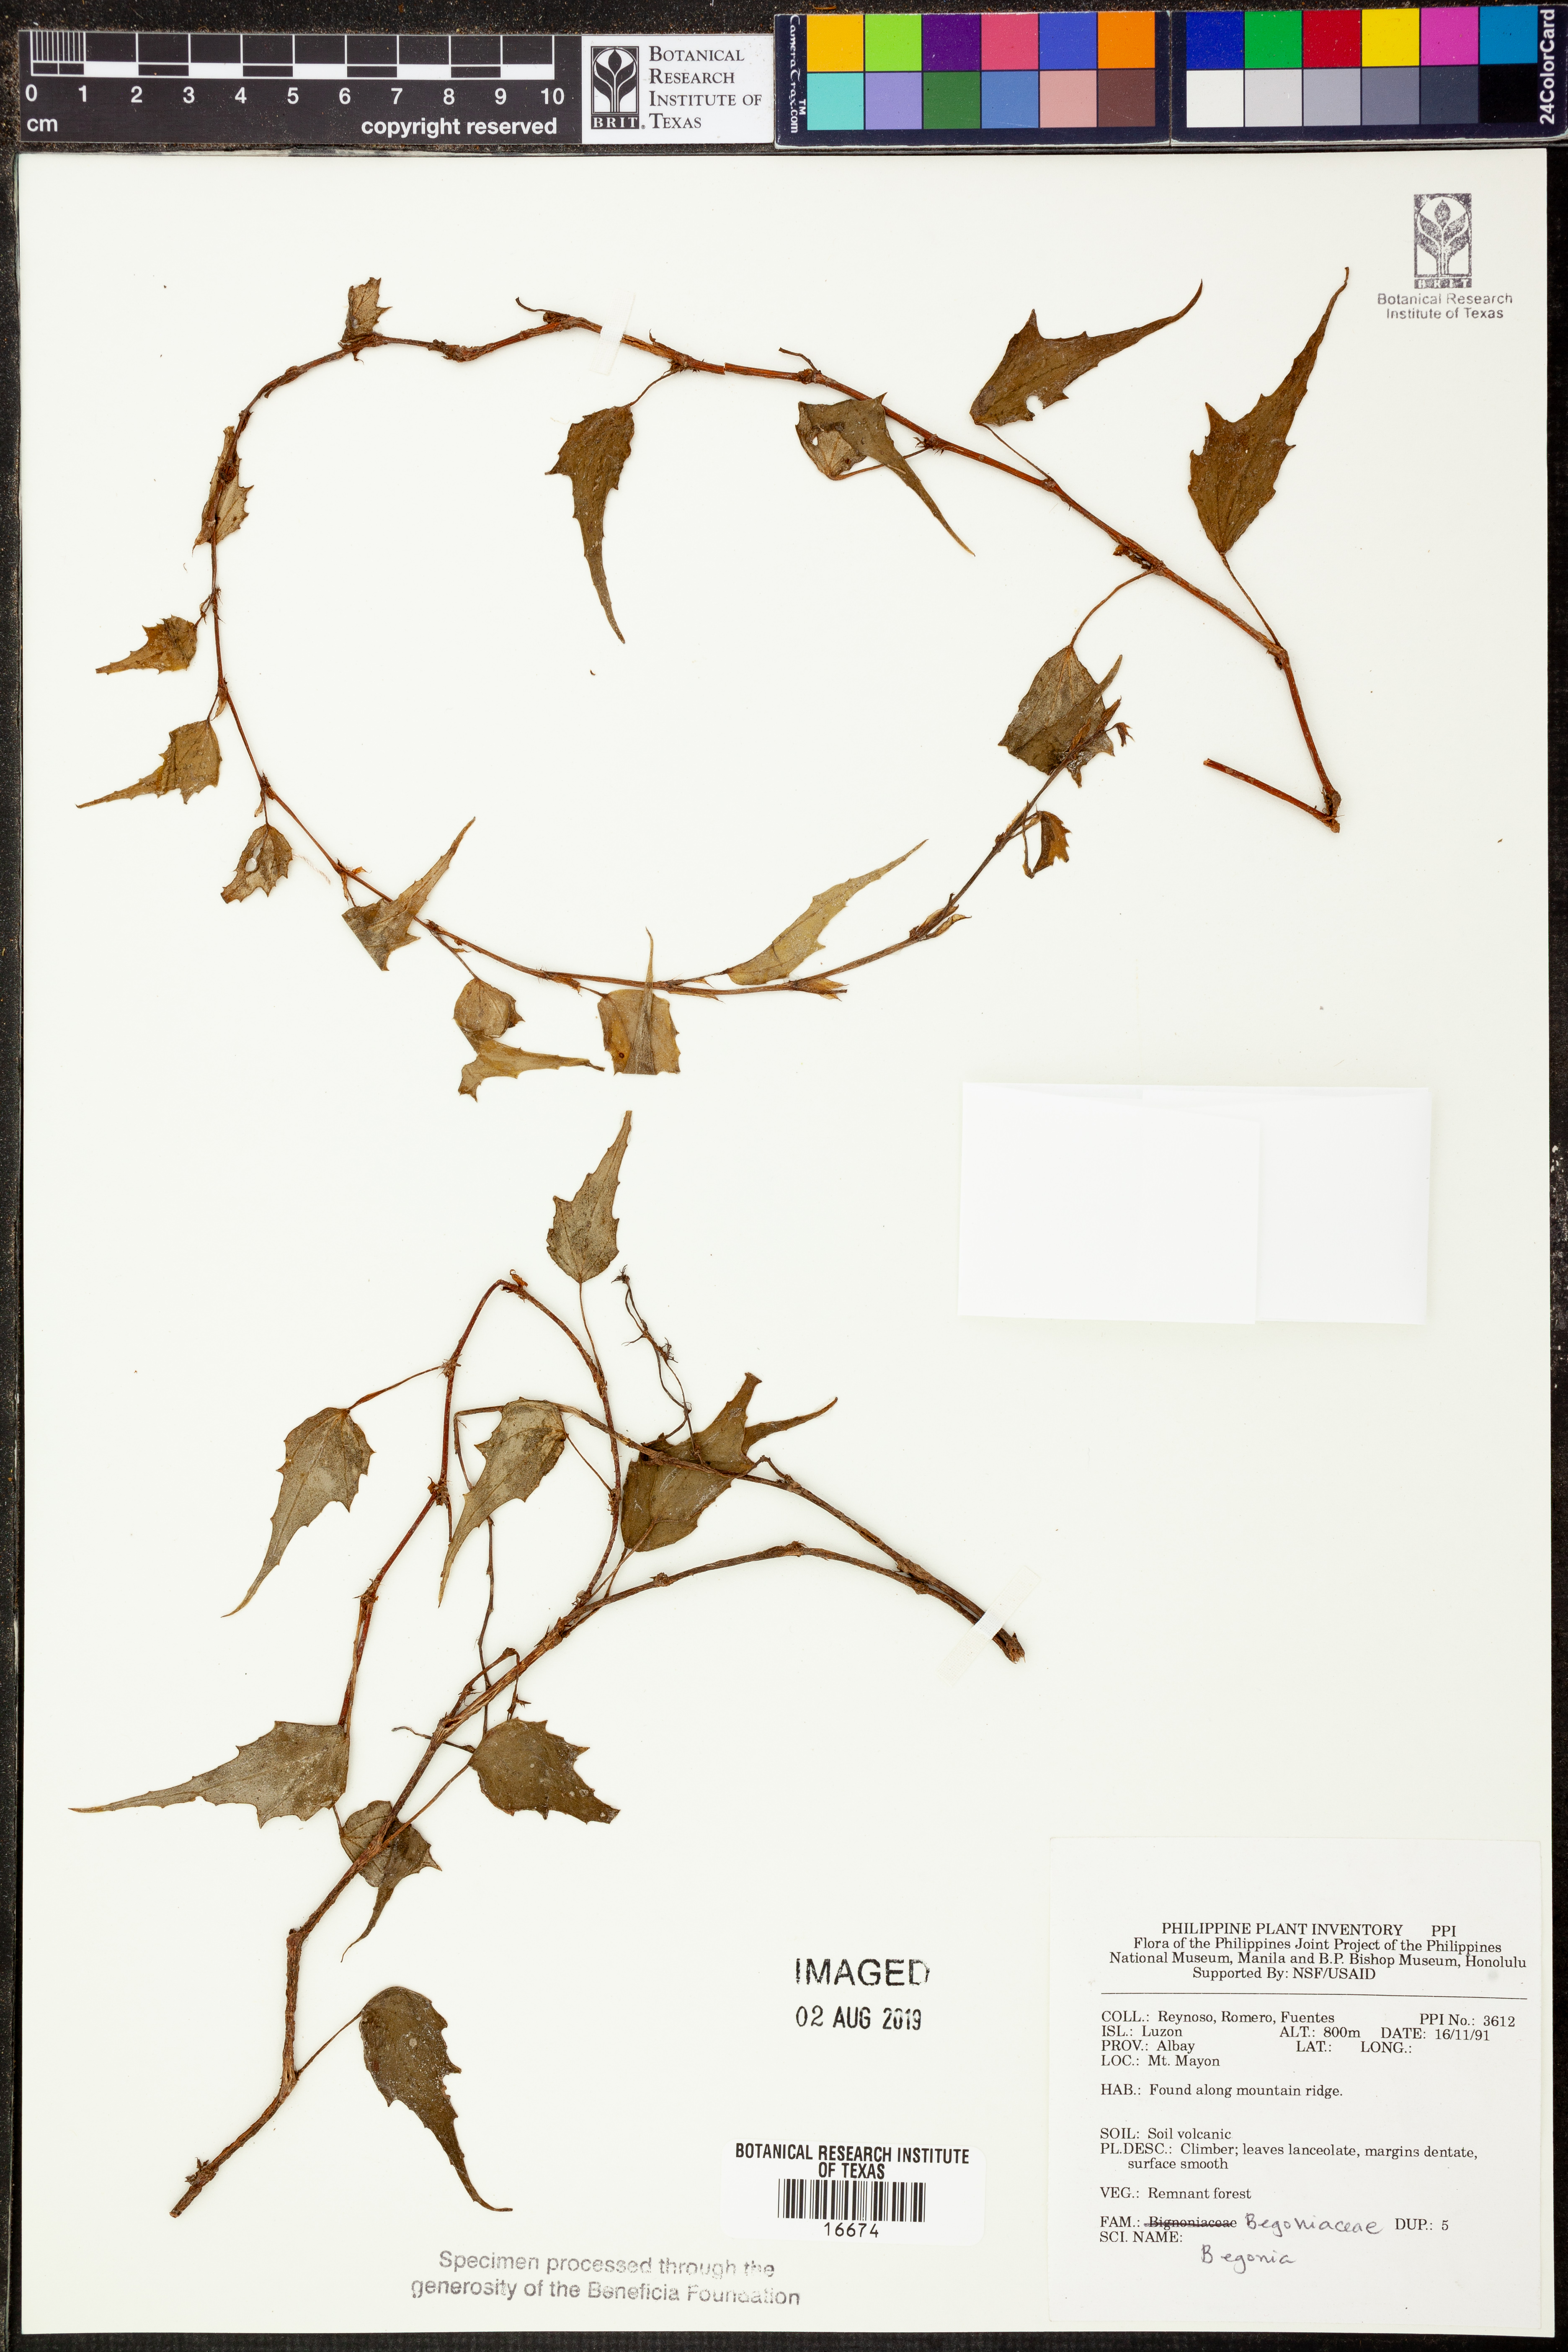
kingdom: Plantae
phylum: Tracheophyta
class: Magnoliopsida
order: Cucurbitales
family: Begoniaceae
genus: Begonia
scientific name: Begonia
